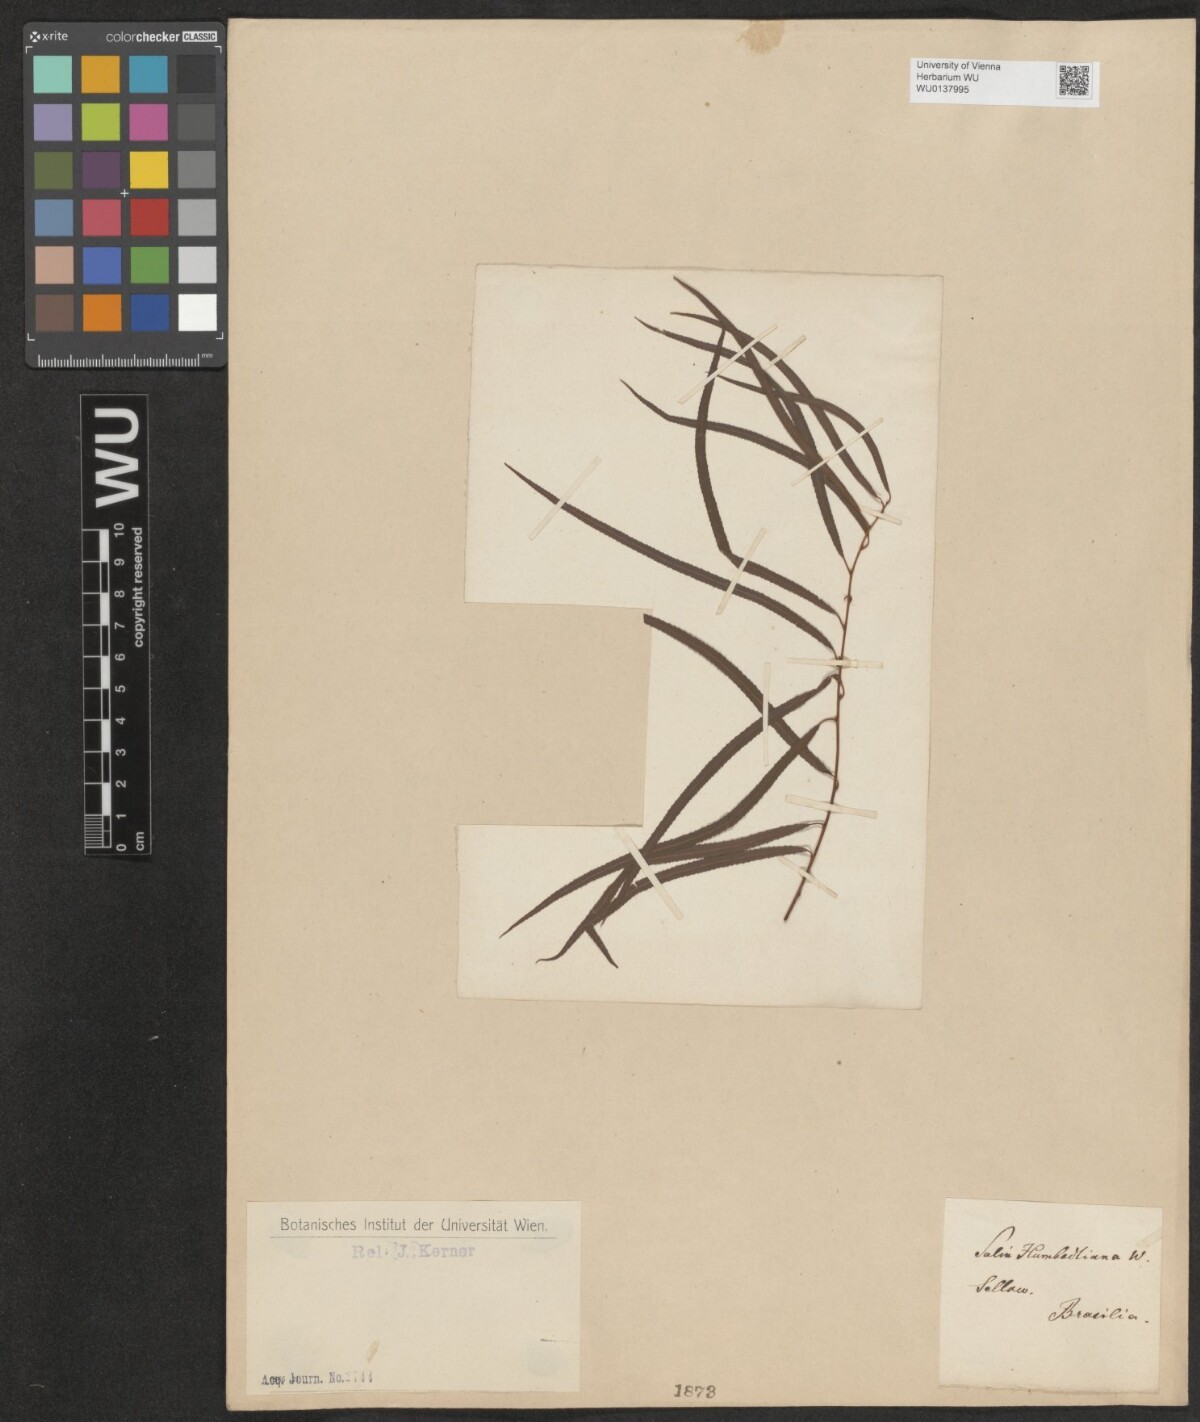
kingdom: Plantae
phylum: Tracheophyta
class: Magnoliopsida
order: Malpighiales
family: Salicaceae
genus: Salix
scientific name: Salix humboldtiana
